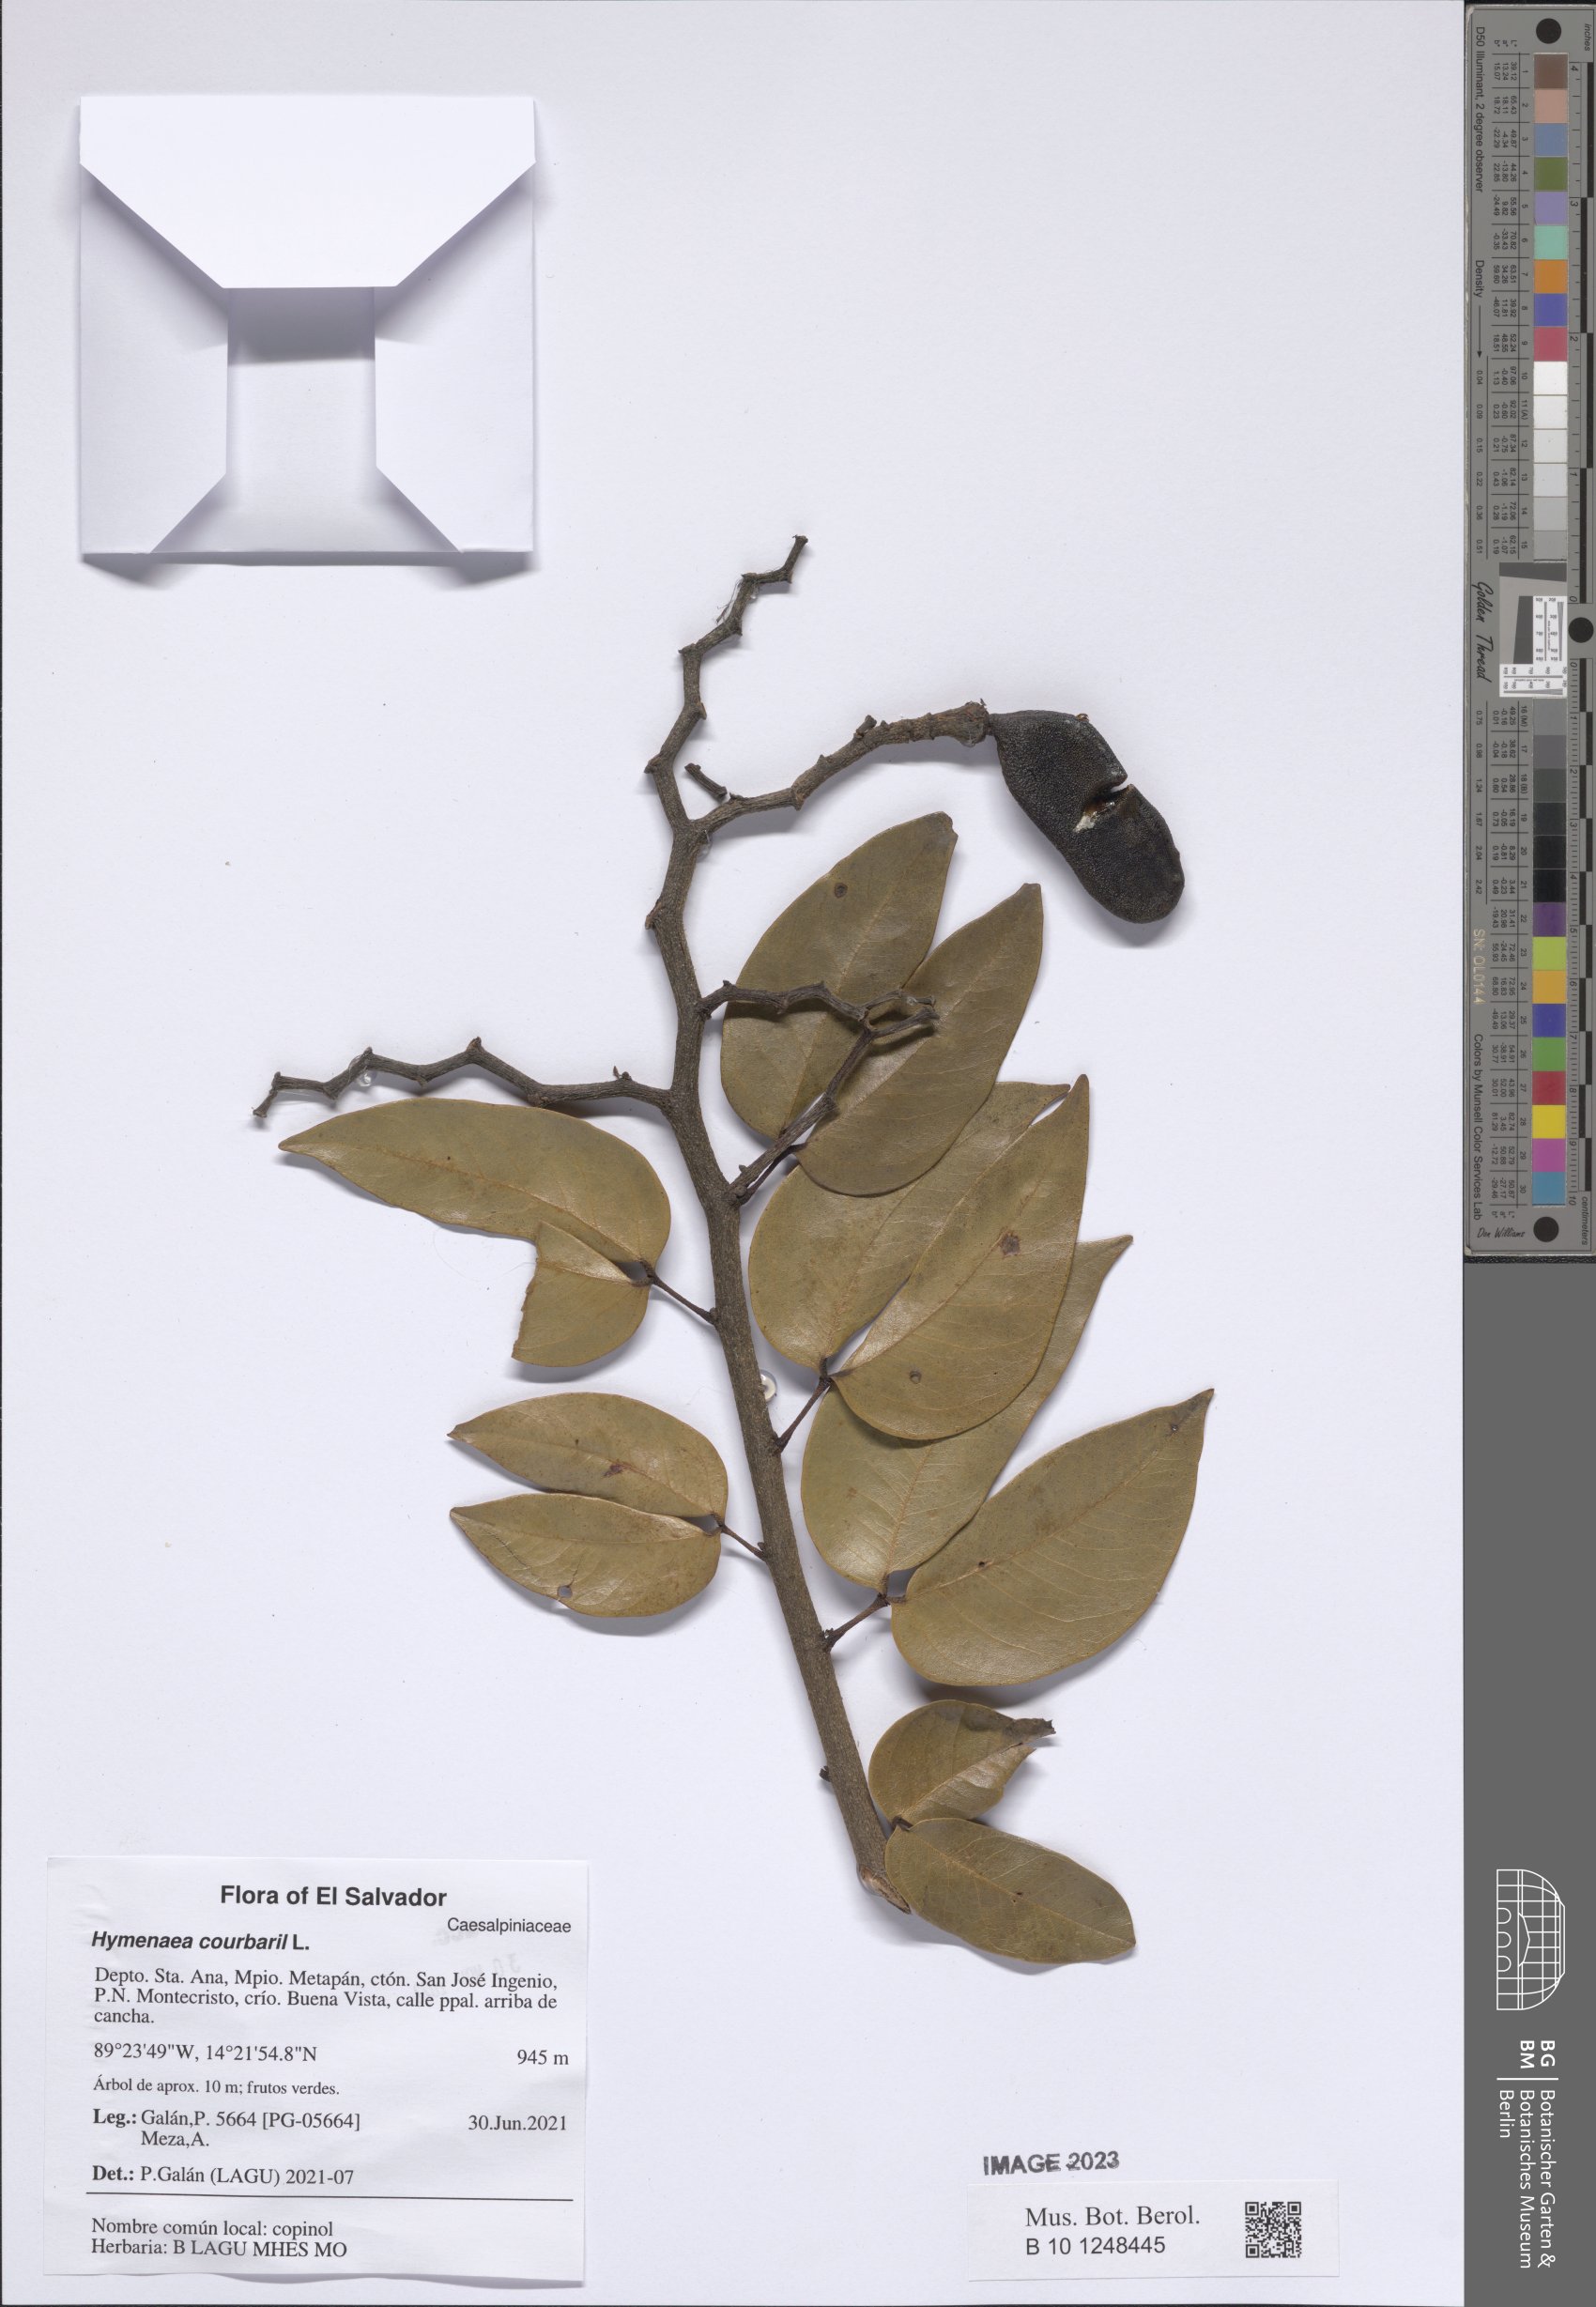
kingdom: Plantae
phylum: Tracheophyta
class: Magnoliopsida
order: Fabales
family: Fabaceae
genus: Hymenaea
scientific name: Hymenaea courbaril
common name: Brazilian copal
